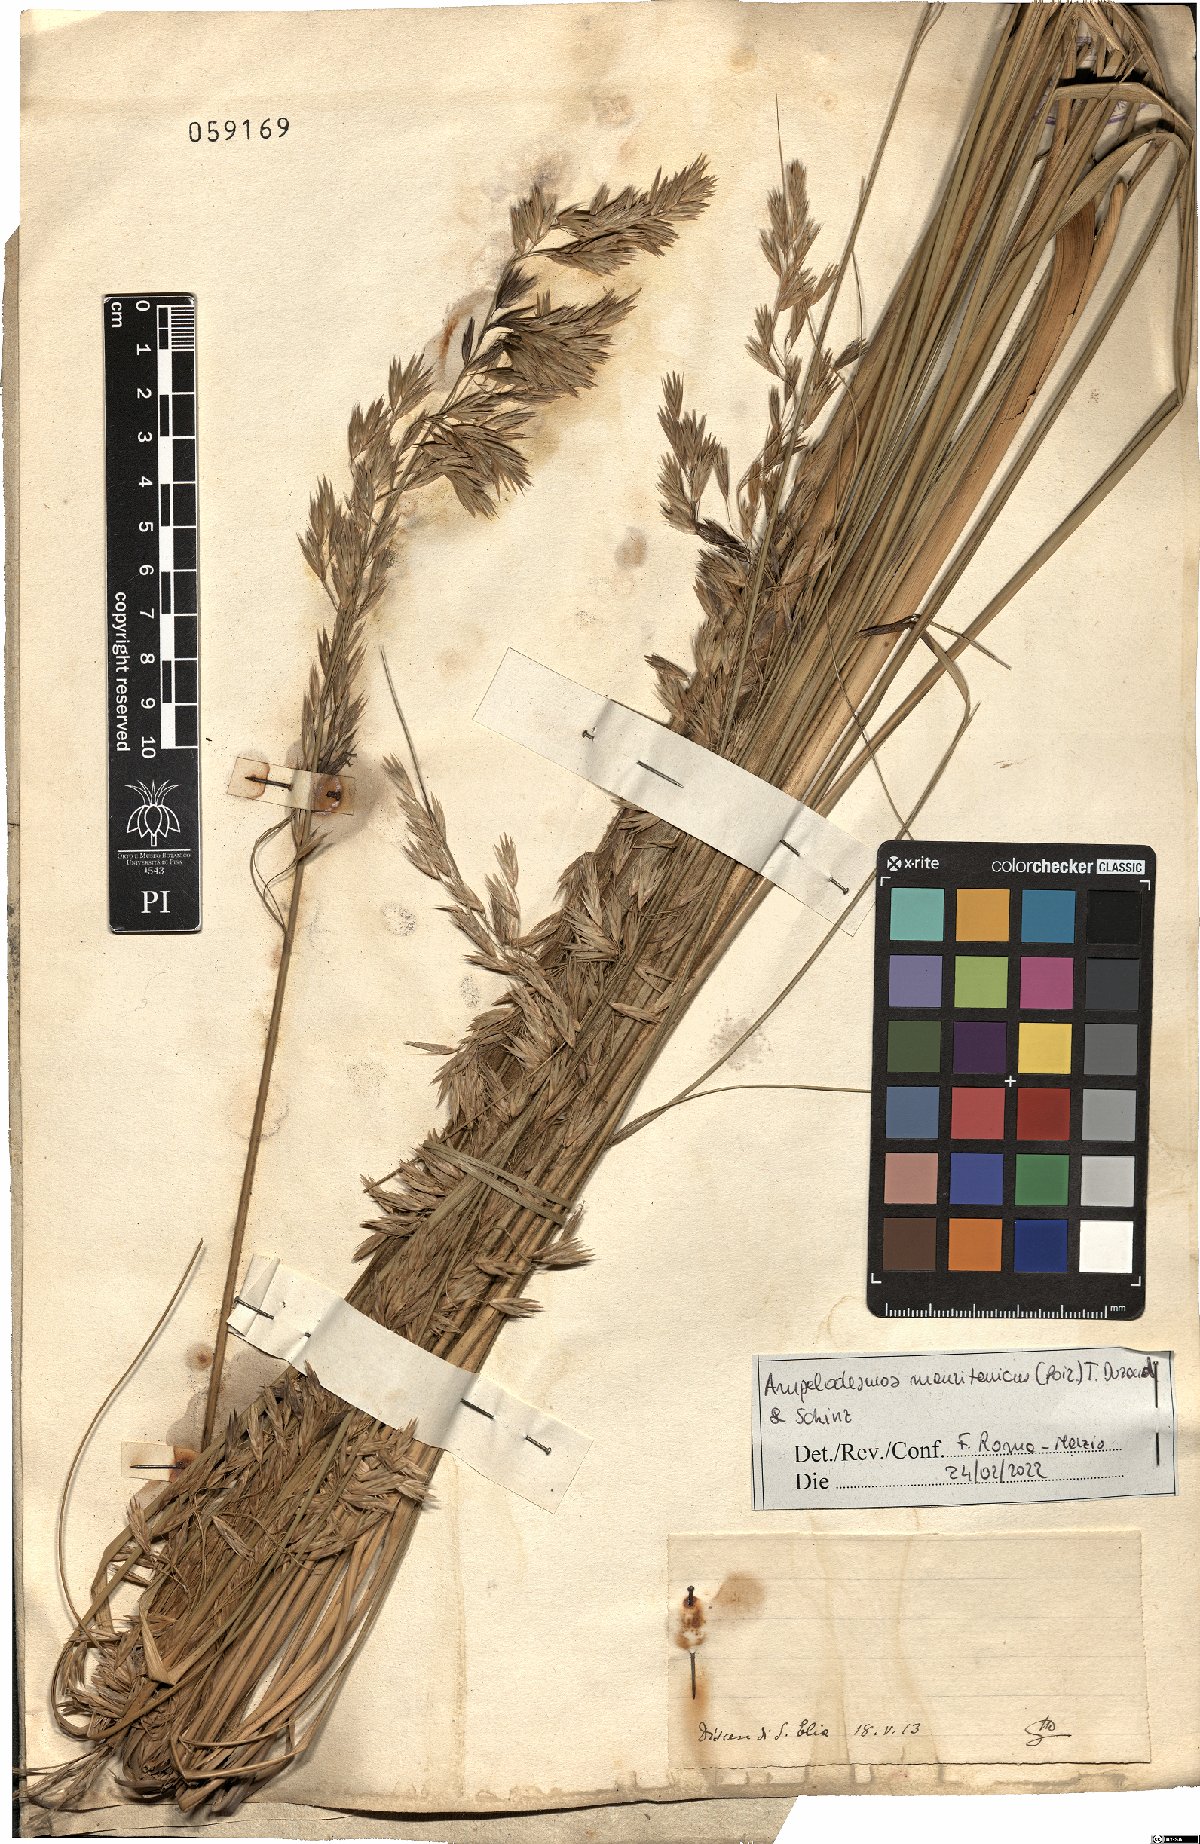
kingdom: Plantae
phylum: Tracheophyta
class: Liliopsida
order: Poales
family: Poaceae
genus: Ampelodesmos
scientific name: Ampelodesmos mauritanicus
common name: Mauritanian grass
